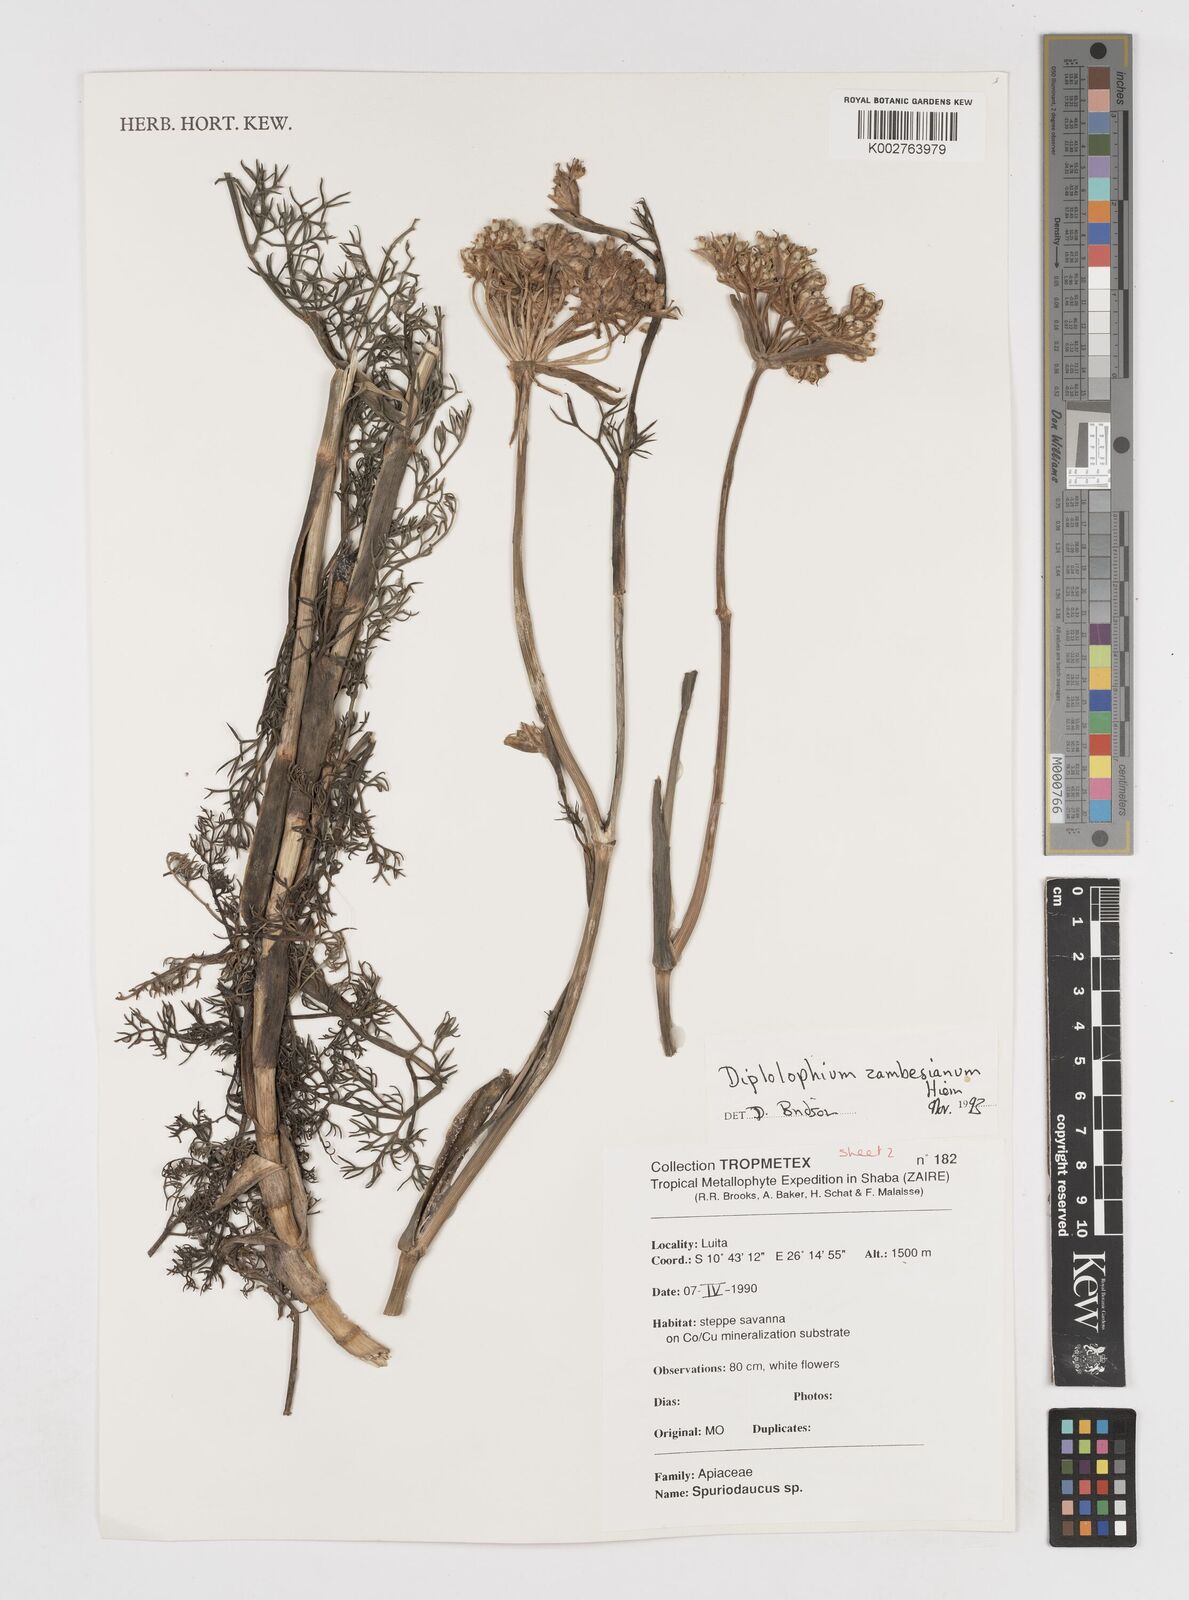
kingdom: Plantae
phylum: Tracheophyta
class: Magnoliopsida
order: Apiales
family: Apiaceae
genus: Diplolophium
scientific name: Diplolophium zambesianum
